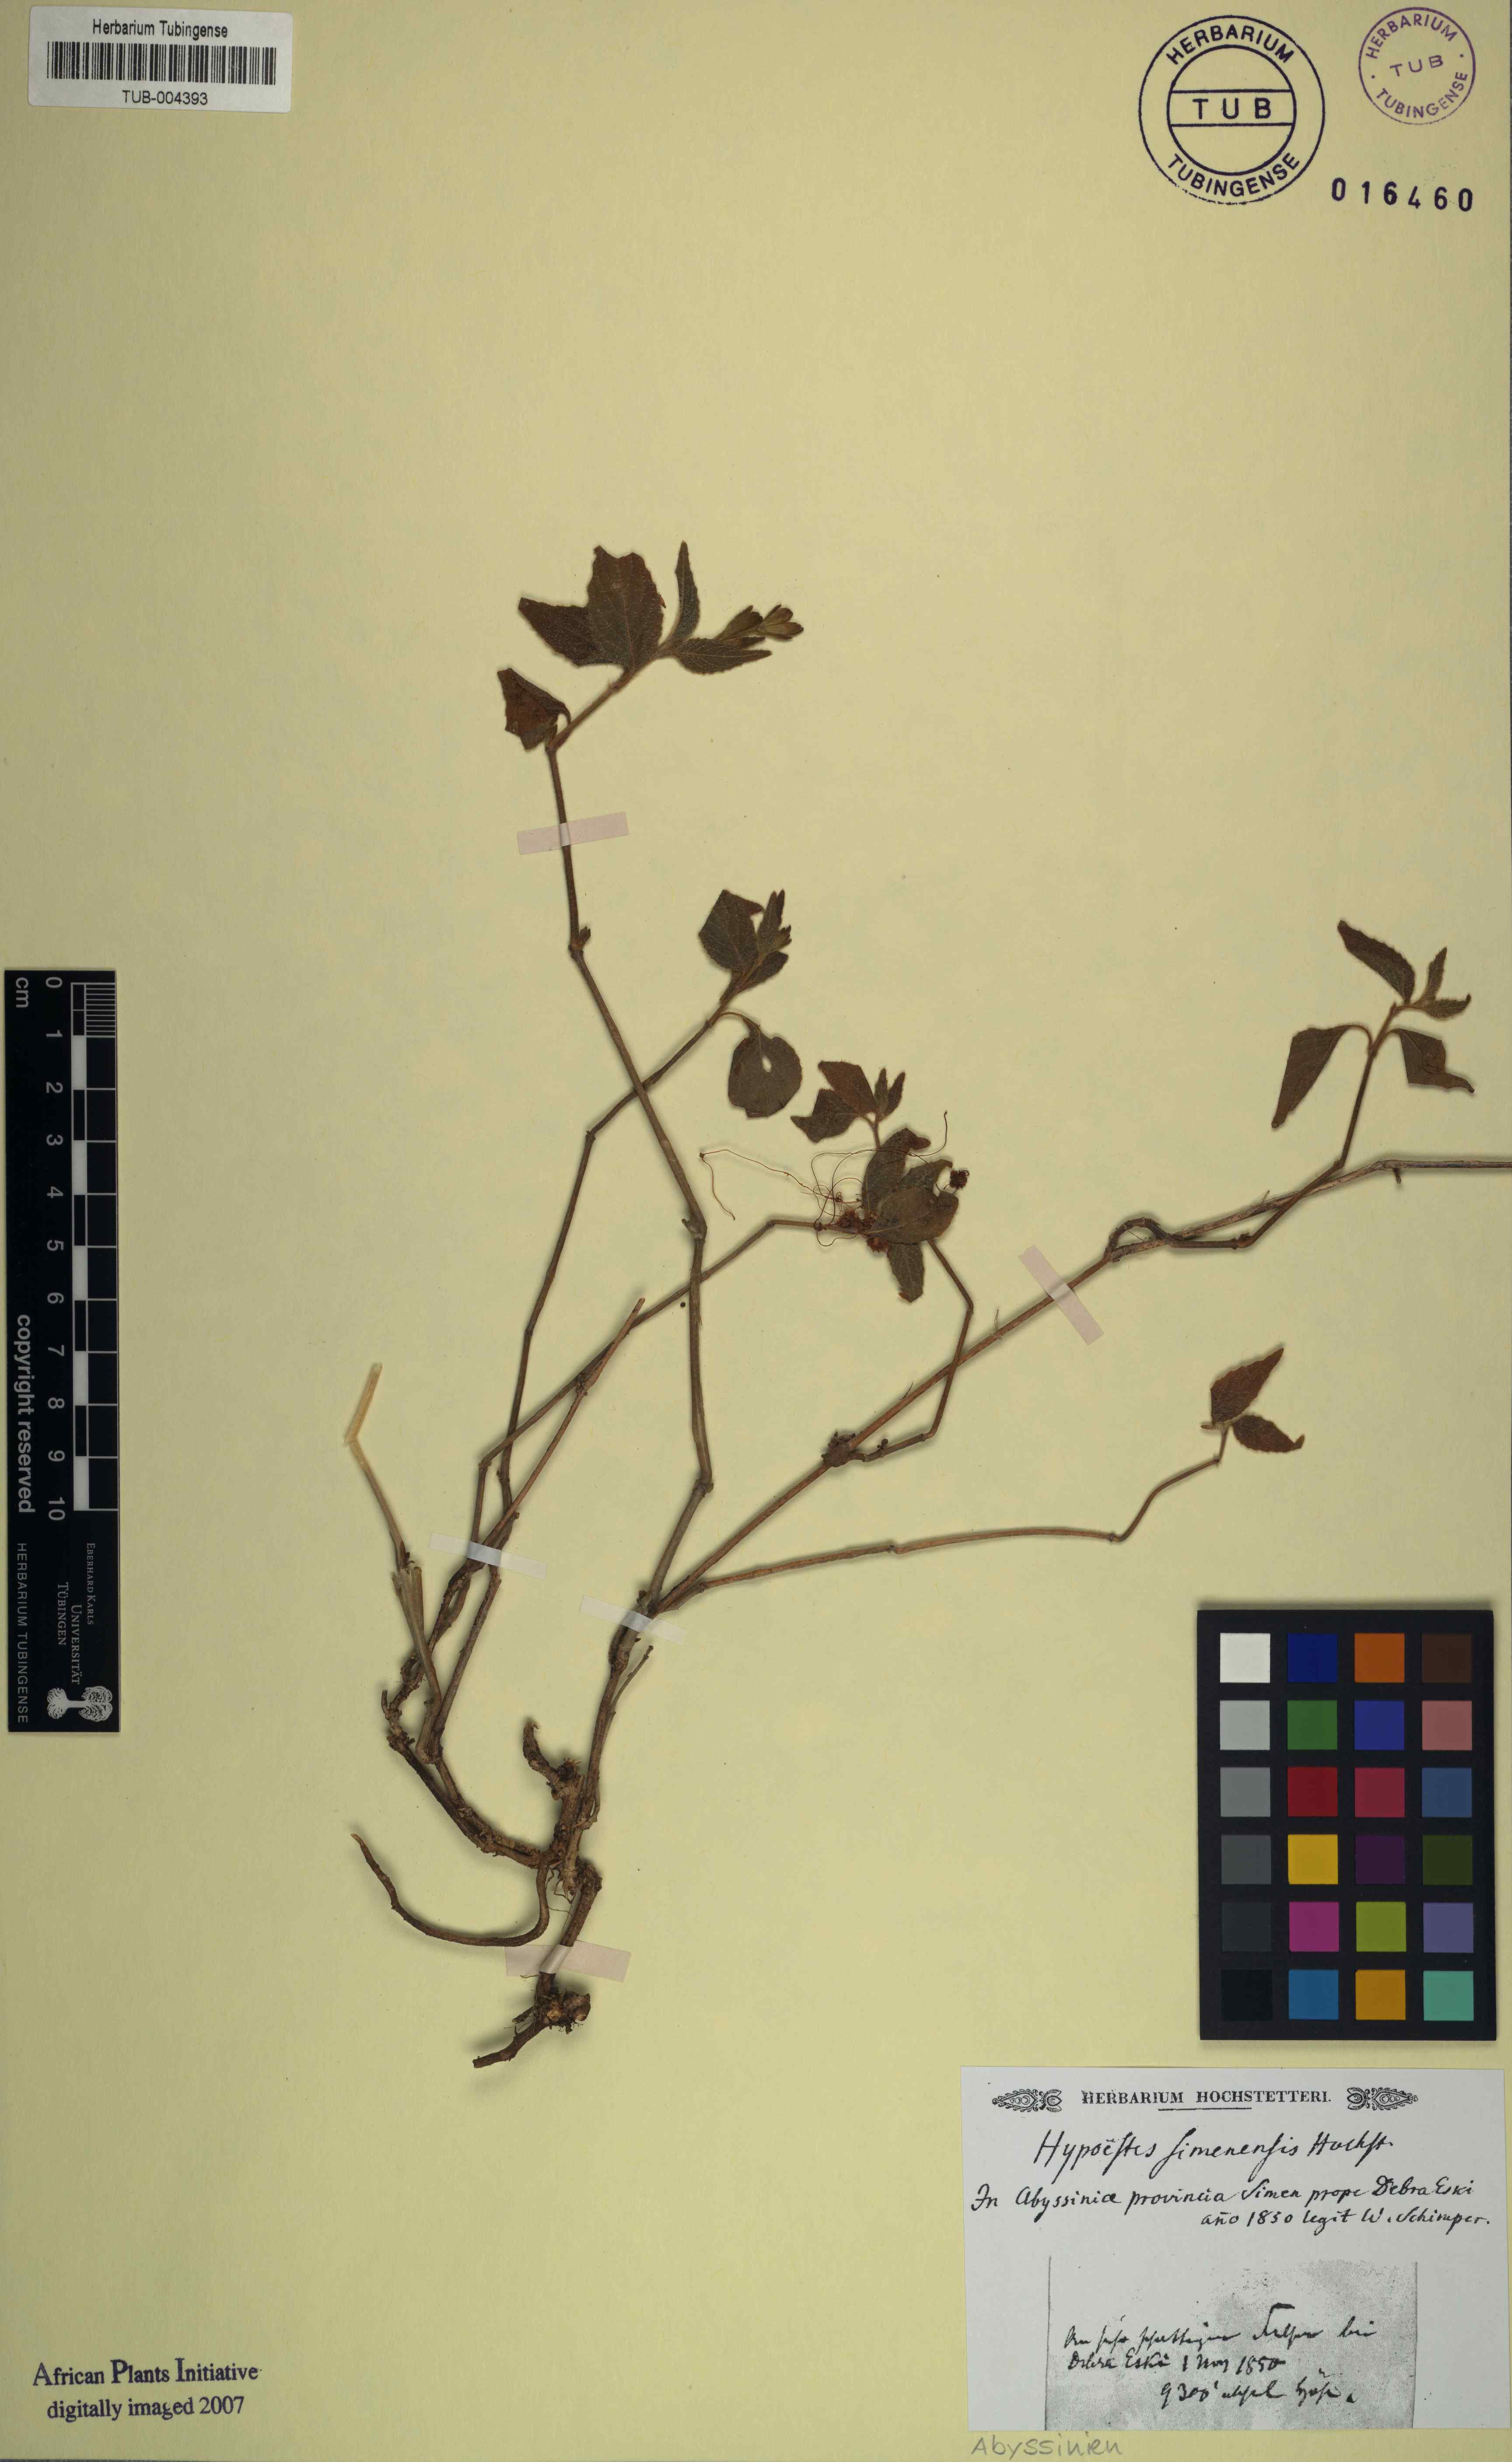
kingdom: Plantae
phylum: Tracheophyta
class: Magnoliopsida
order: Lamiales
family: Acanthaceae
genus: Hypoestes
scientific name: Hypoestes triflora
